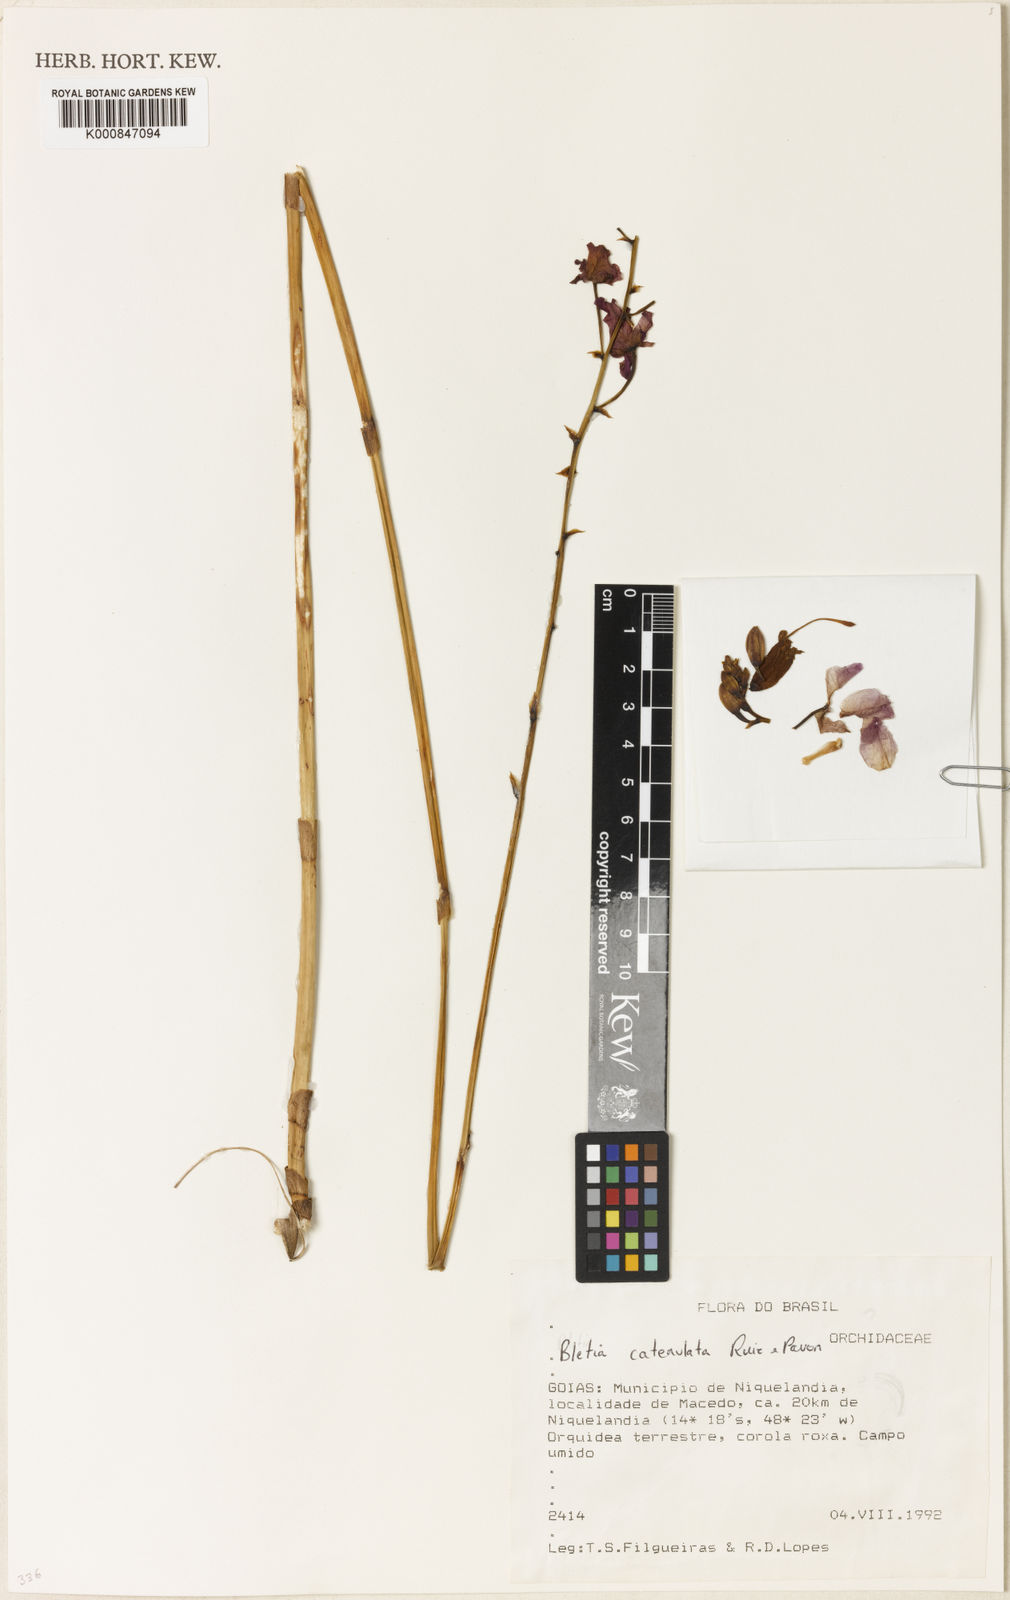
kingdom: Plantae
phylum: Tracheophyta
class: Liliopsida
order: Asparagales
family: Orchidaceae
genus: Bletia
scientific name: Bletia
